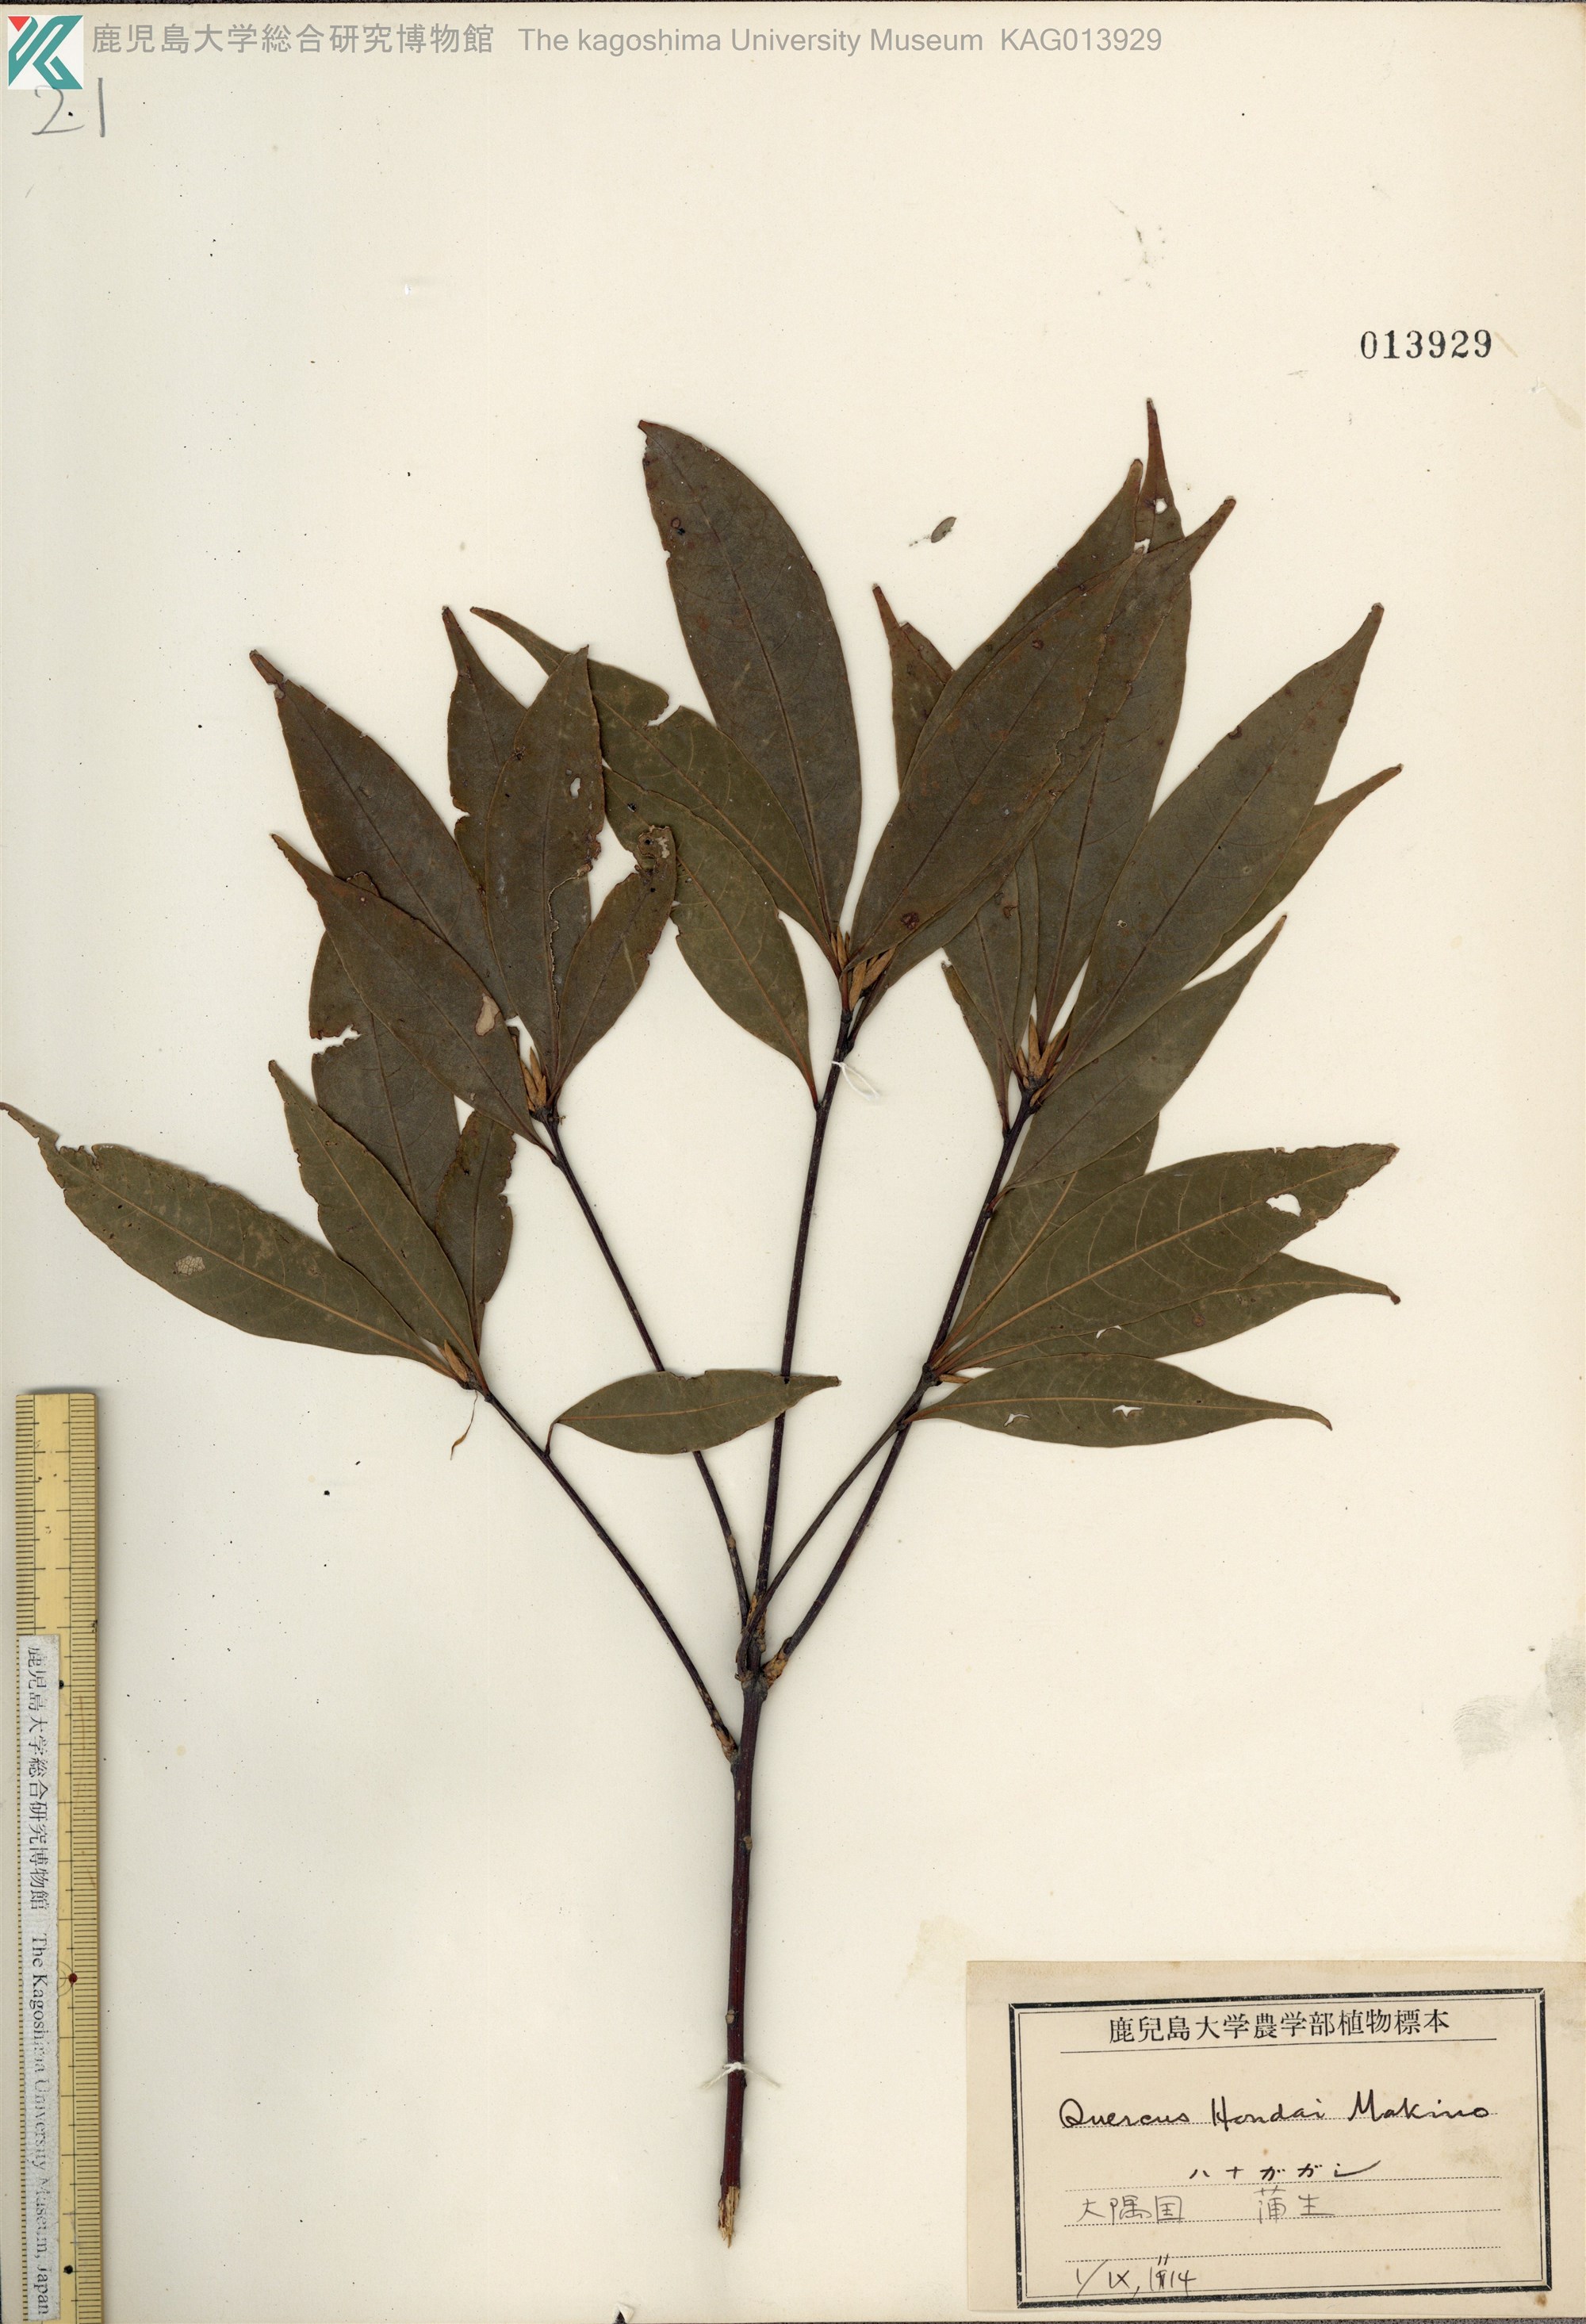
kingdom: Plantae
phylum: Tracheophyta
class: Magnoliopsida
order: Fagales
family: Fagaceae
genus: Quercus
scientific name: Quercus hondae
